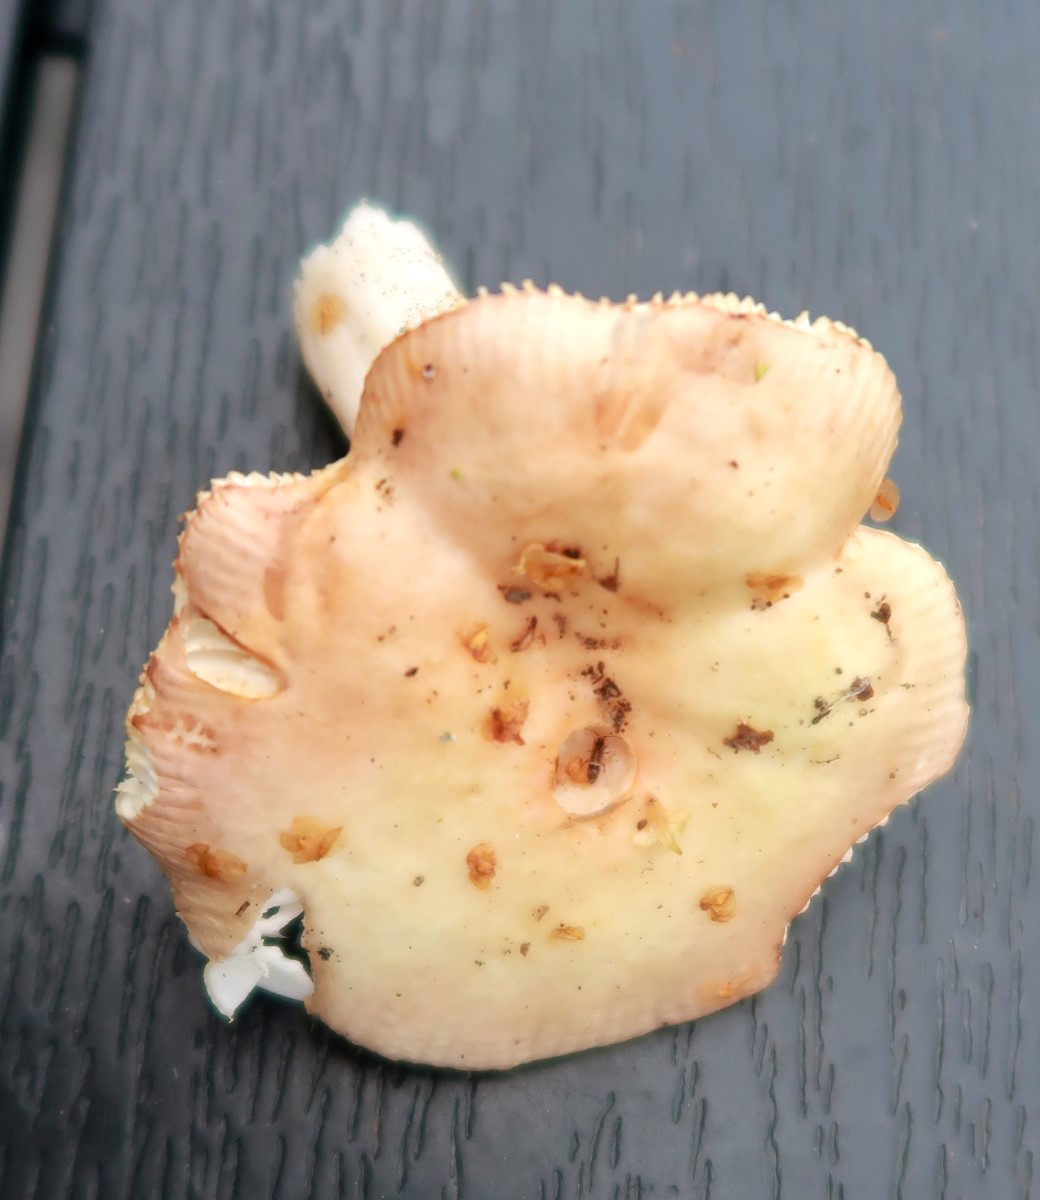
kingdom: Fungi
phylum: Basidiomycota
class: Agaricomycetes
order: Russulales
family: Russulaceae
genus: Russula
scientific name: Russula versicolor
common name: foranderlig skørhat
